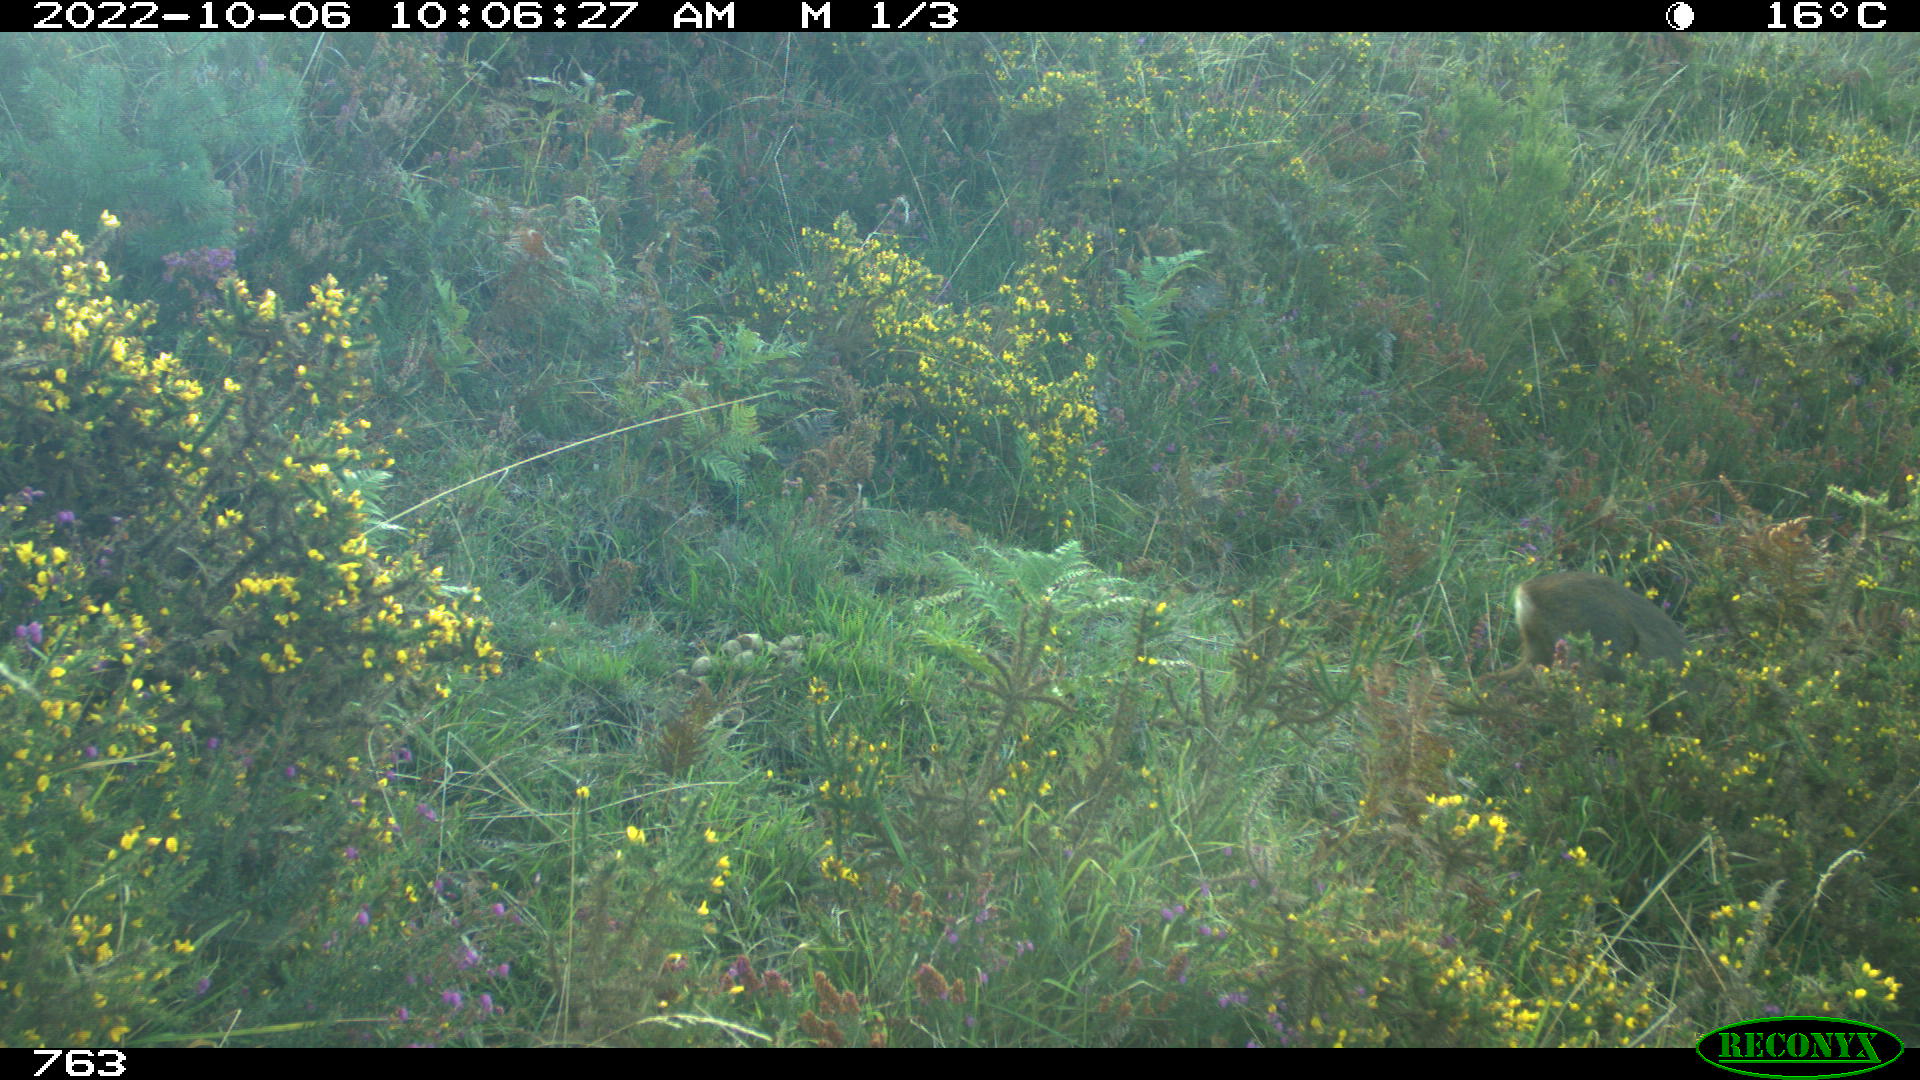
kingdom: Animalia
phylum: Chordata
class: Mammalia
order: Artiodactyla
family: Cervidae
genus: Capreolus
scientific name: Capreolus capreolus
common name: Western roe deer
